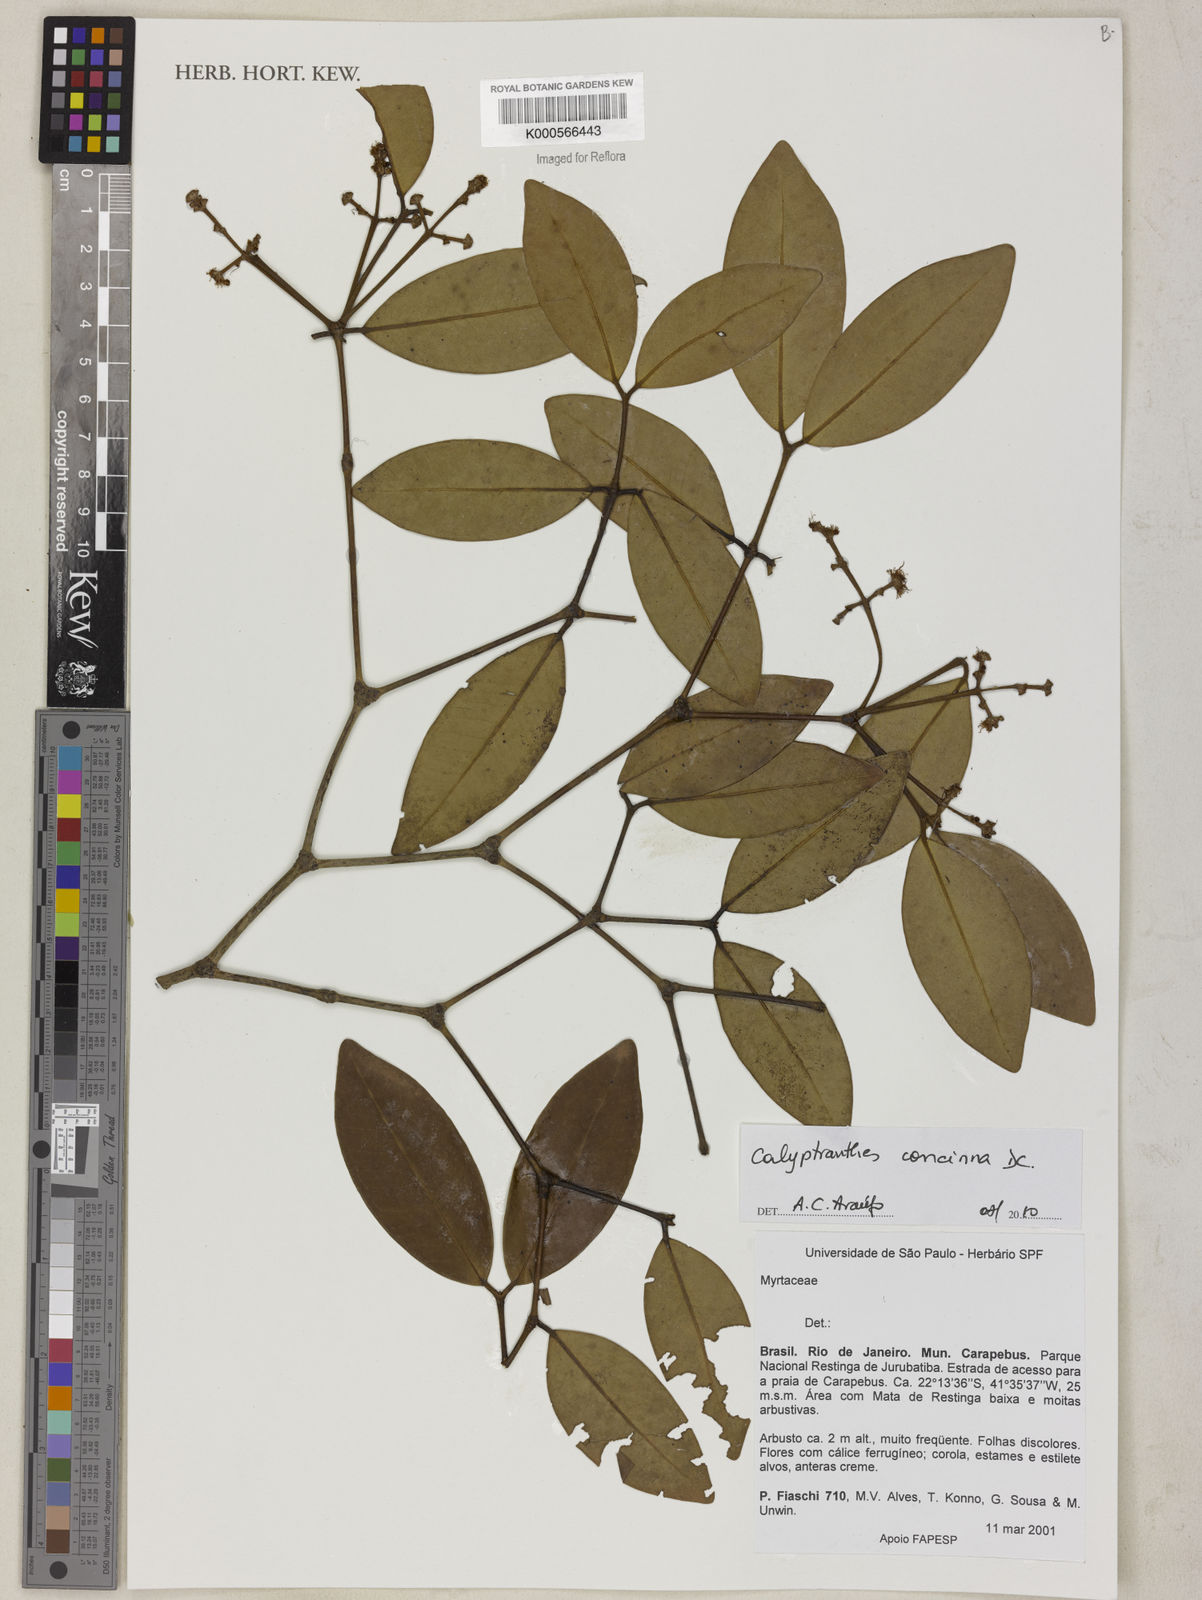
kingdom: Plantae
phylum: Tracheophyta
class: Magnoliopsida
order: Myrtales
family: Myrtaceae
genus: Myrcia
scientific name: Myrcia cruciflora
